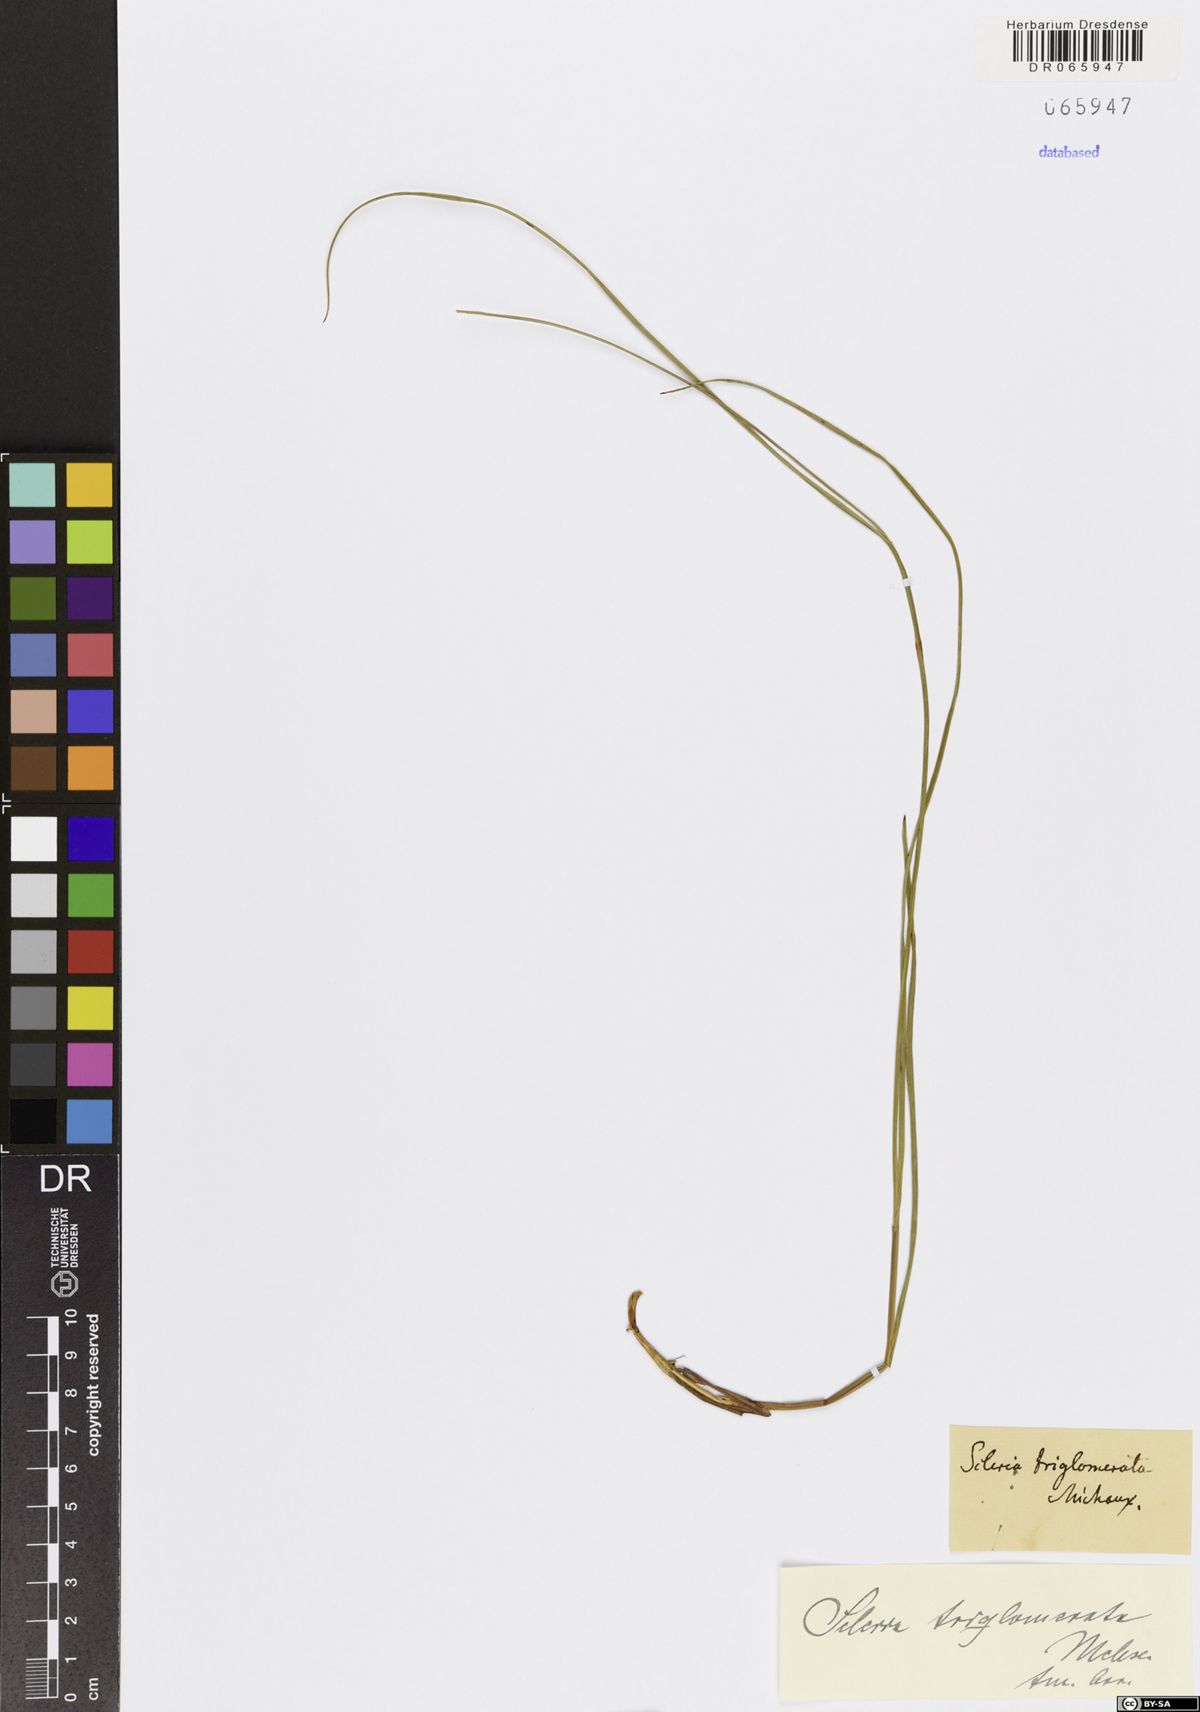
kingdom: Plantae
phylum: Tracheophyta
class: Liliopsida
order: Poales
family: Cyperaceae
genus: Scleria
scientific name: Scleria triglomerata
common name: Whip nutrush
